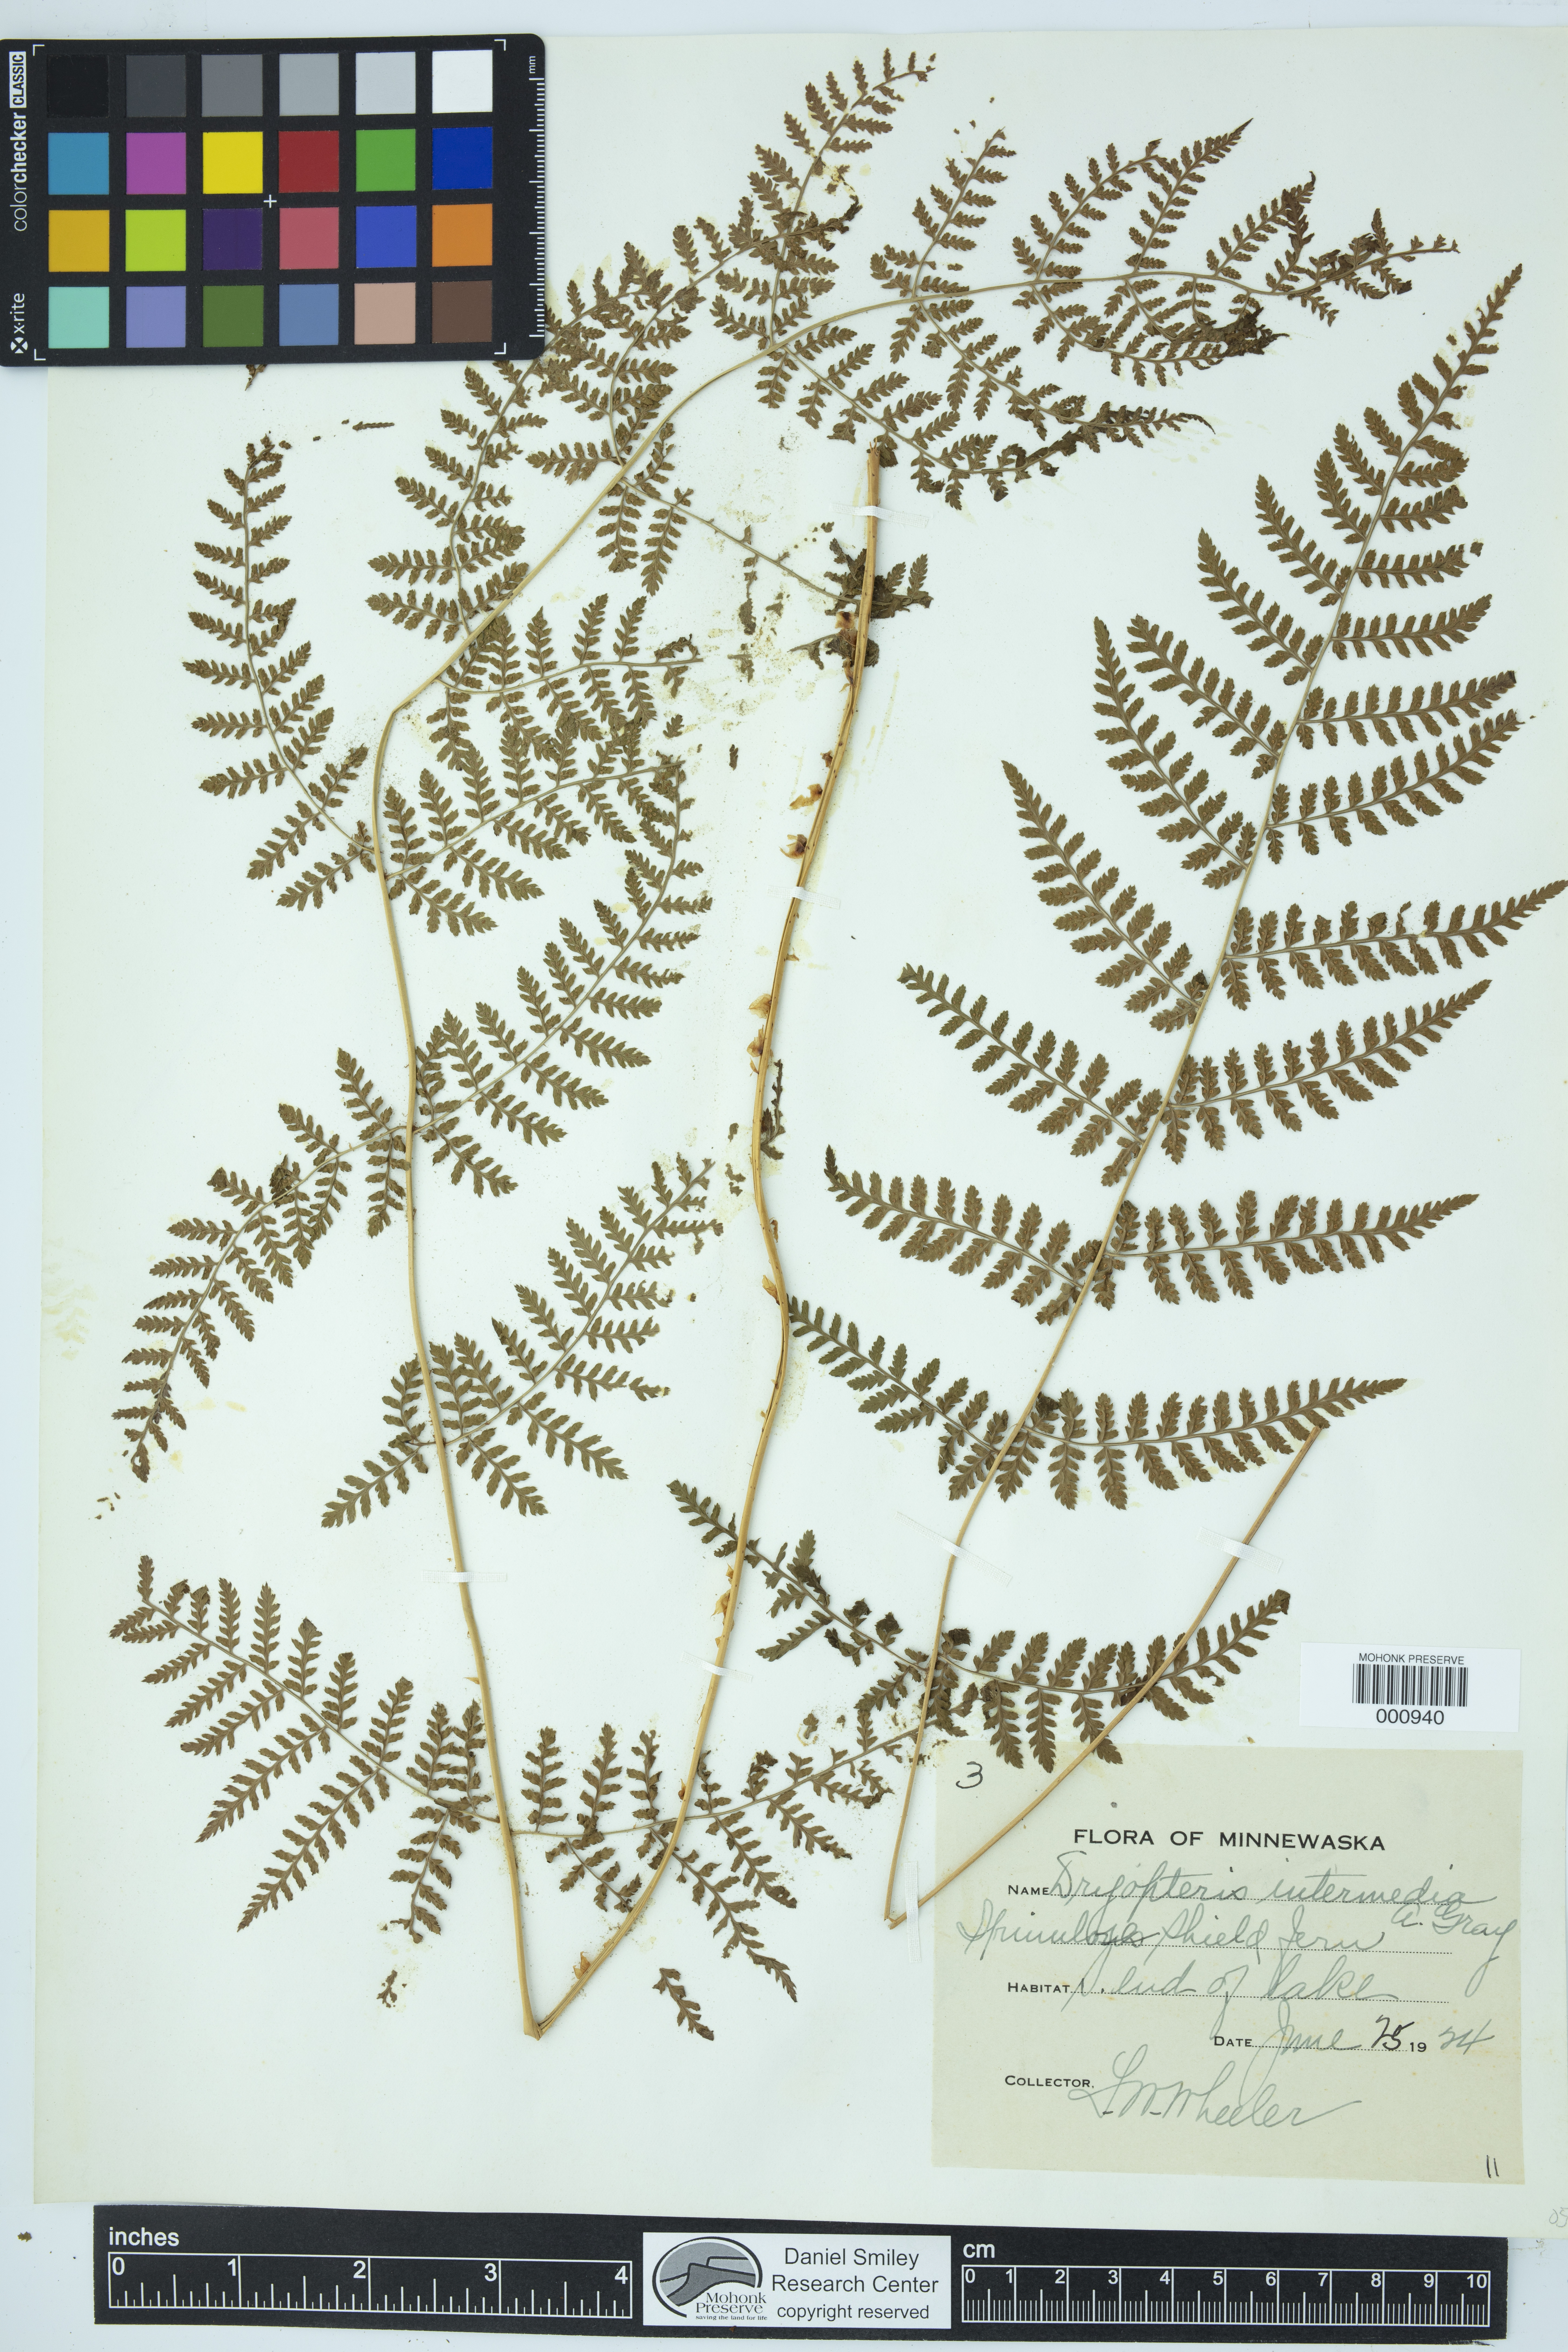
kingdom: Plantae
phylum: Tracheophyta
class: Polypodiopsida
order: Polypodiales
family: Dryopteridaceae
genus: Dryopteris
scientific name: Dryopteris intermedia
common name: Evergreen wood fern
